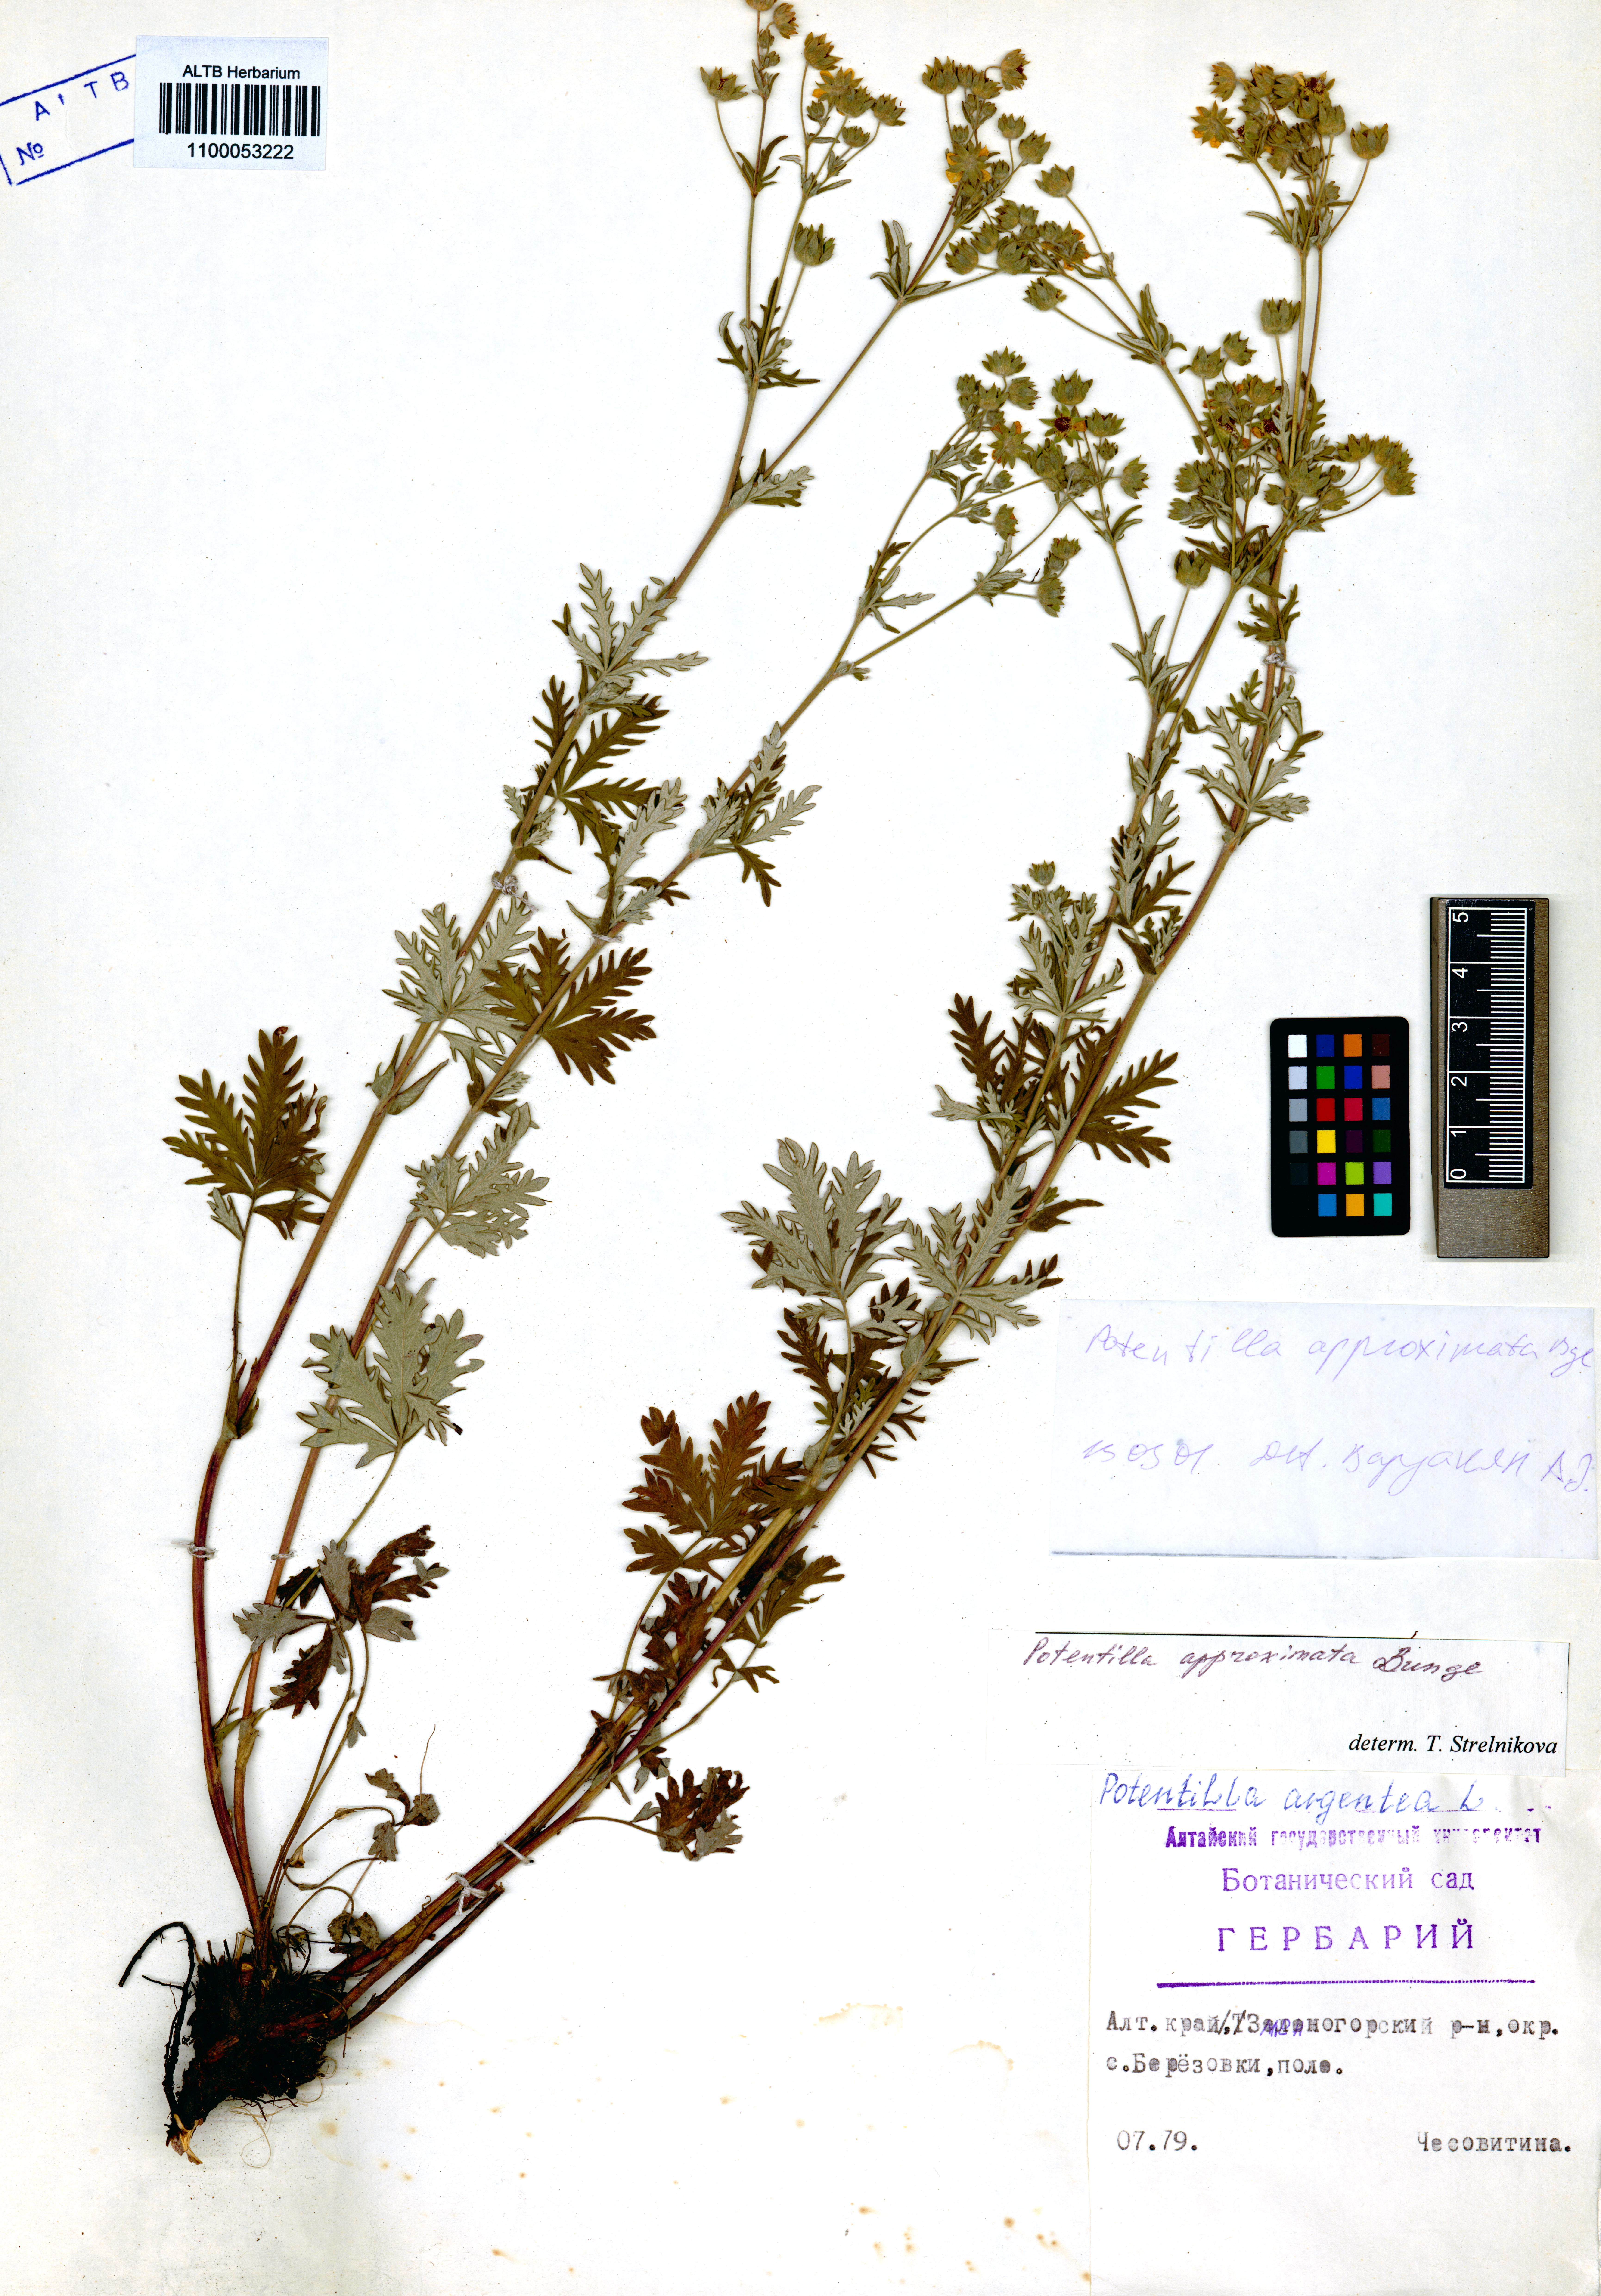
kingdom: Plantae
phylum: Tracheophyta
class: Magnoliopsida
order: Rosales
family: Rosaceae
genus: Potentilla
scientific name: Potentilla conferta
